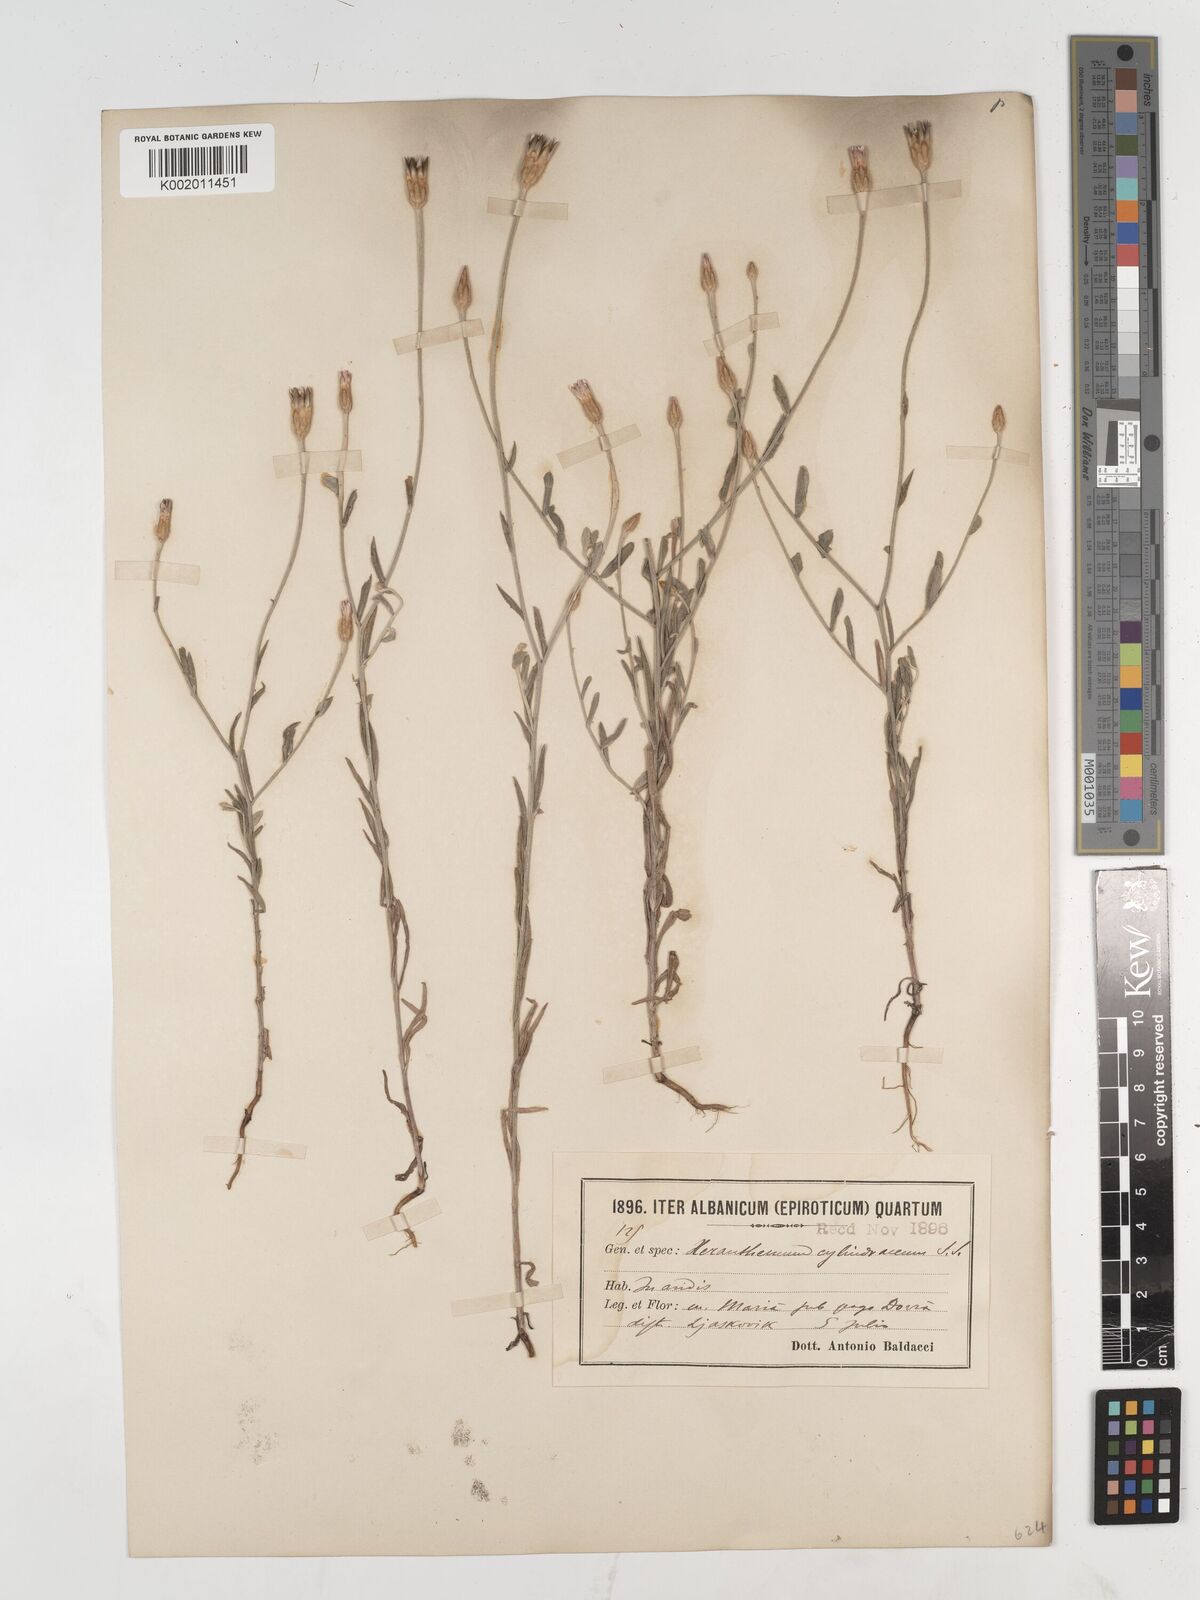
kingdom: Plantae
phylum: Tracheophyta
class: Magnoliopsida
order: Asterales
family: Asteraceae
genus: Xeranthemum
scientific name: Xeranthemum
